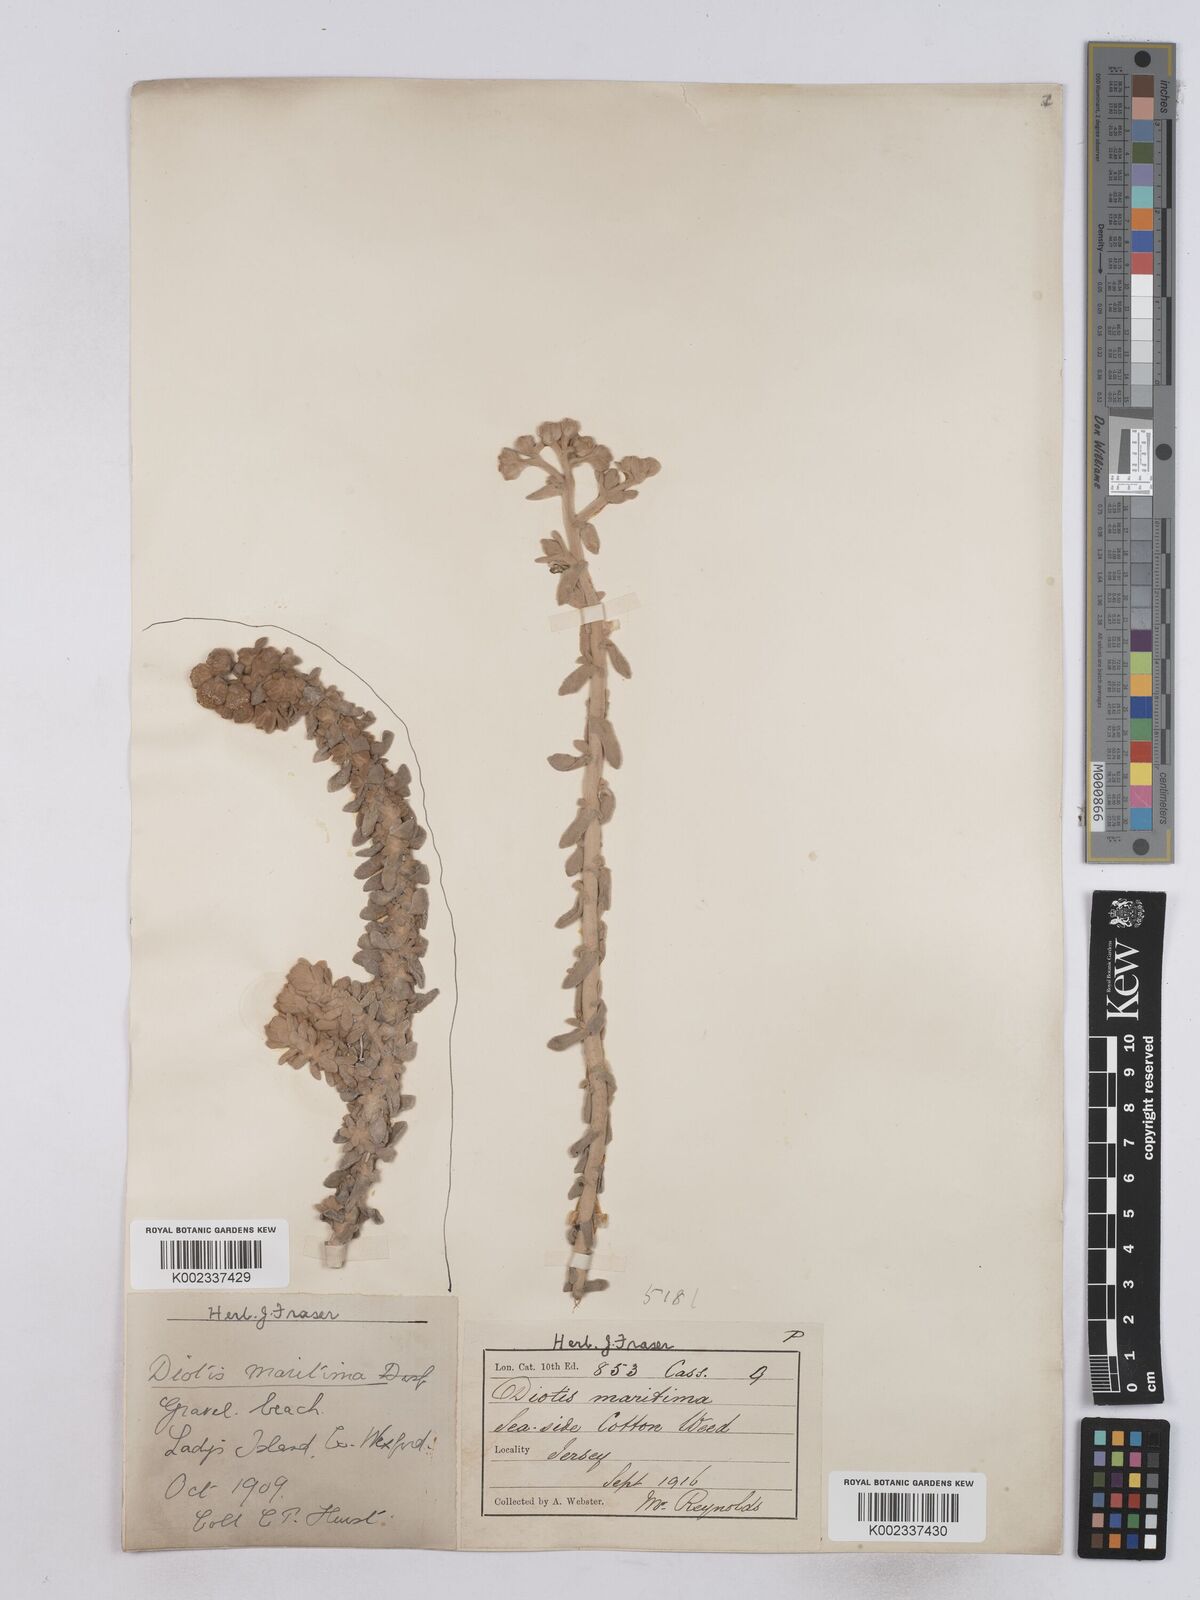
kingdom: Plantae
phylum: Tracheophyta
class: Magnoliopsida
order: Asterales
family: Asteraceae
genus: Achillea
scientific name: Achillea maritima
